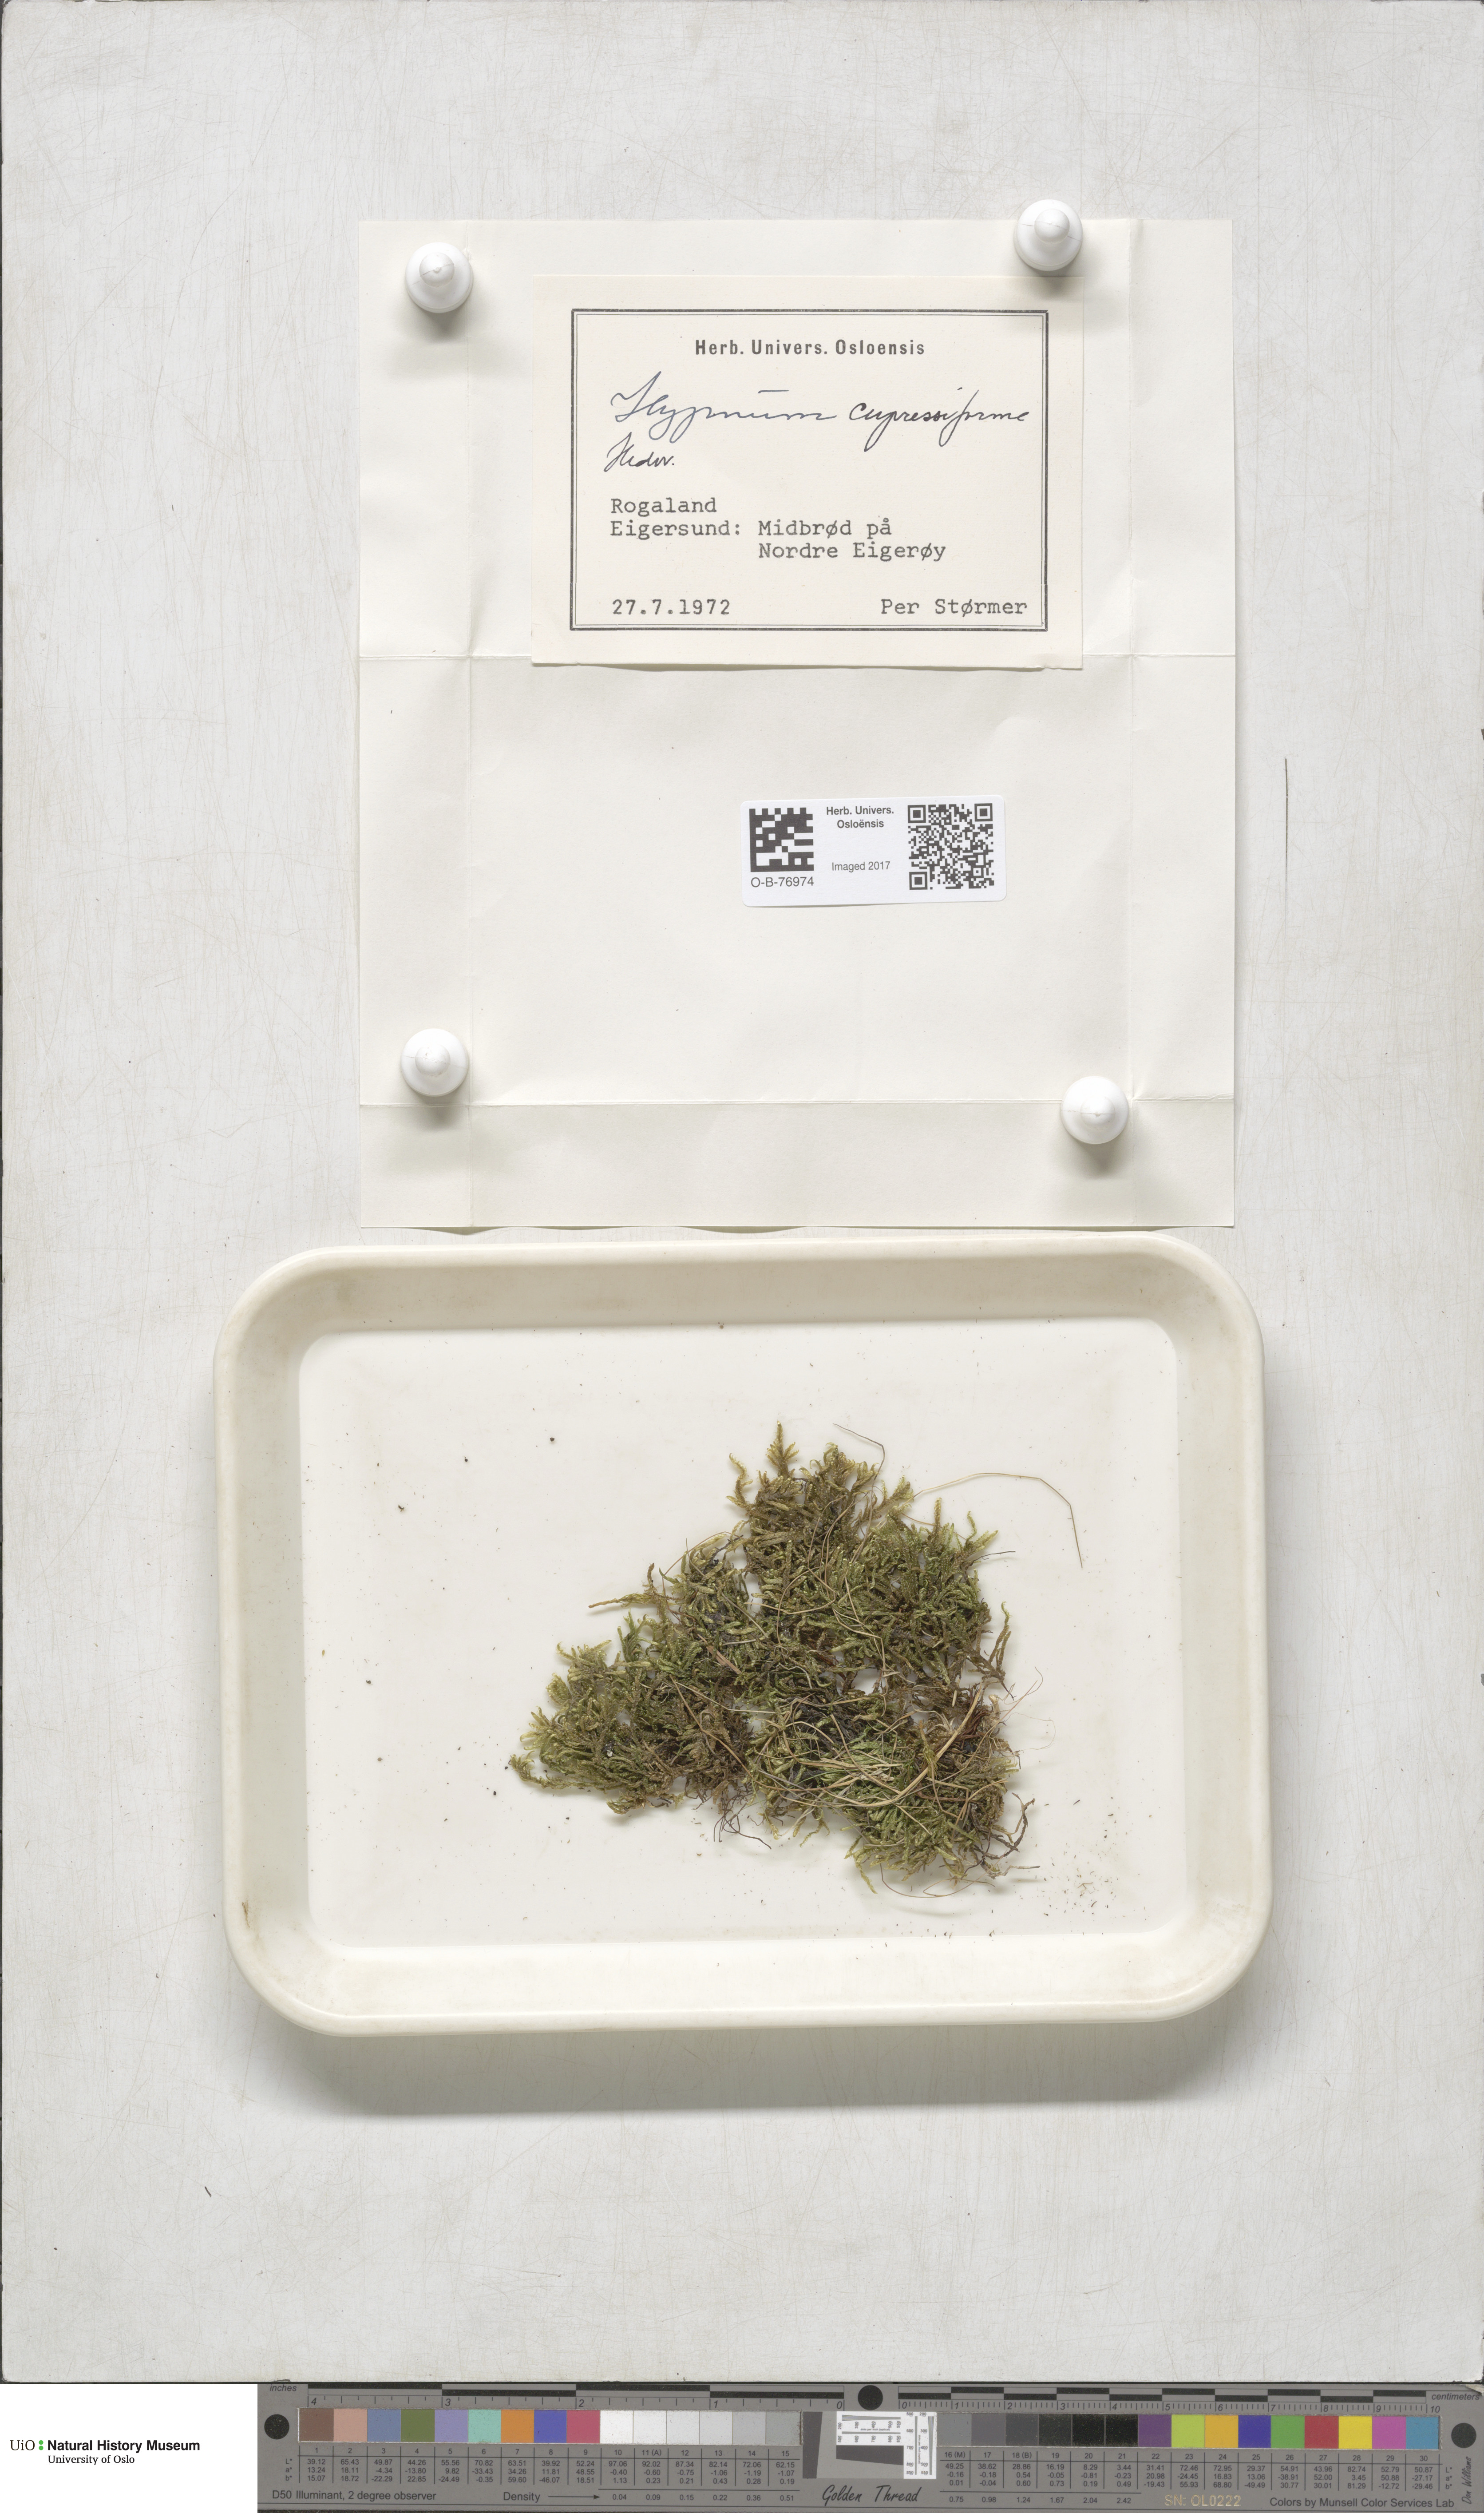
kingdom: Plantae
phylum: Bryophyta
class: Bryopsida
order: Hypnales
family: Hypnaceae
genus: Hypnum
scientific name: Hypnum cupressiforme
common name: Cypress-leaved plait-moss
